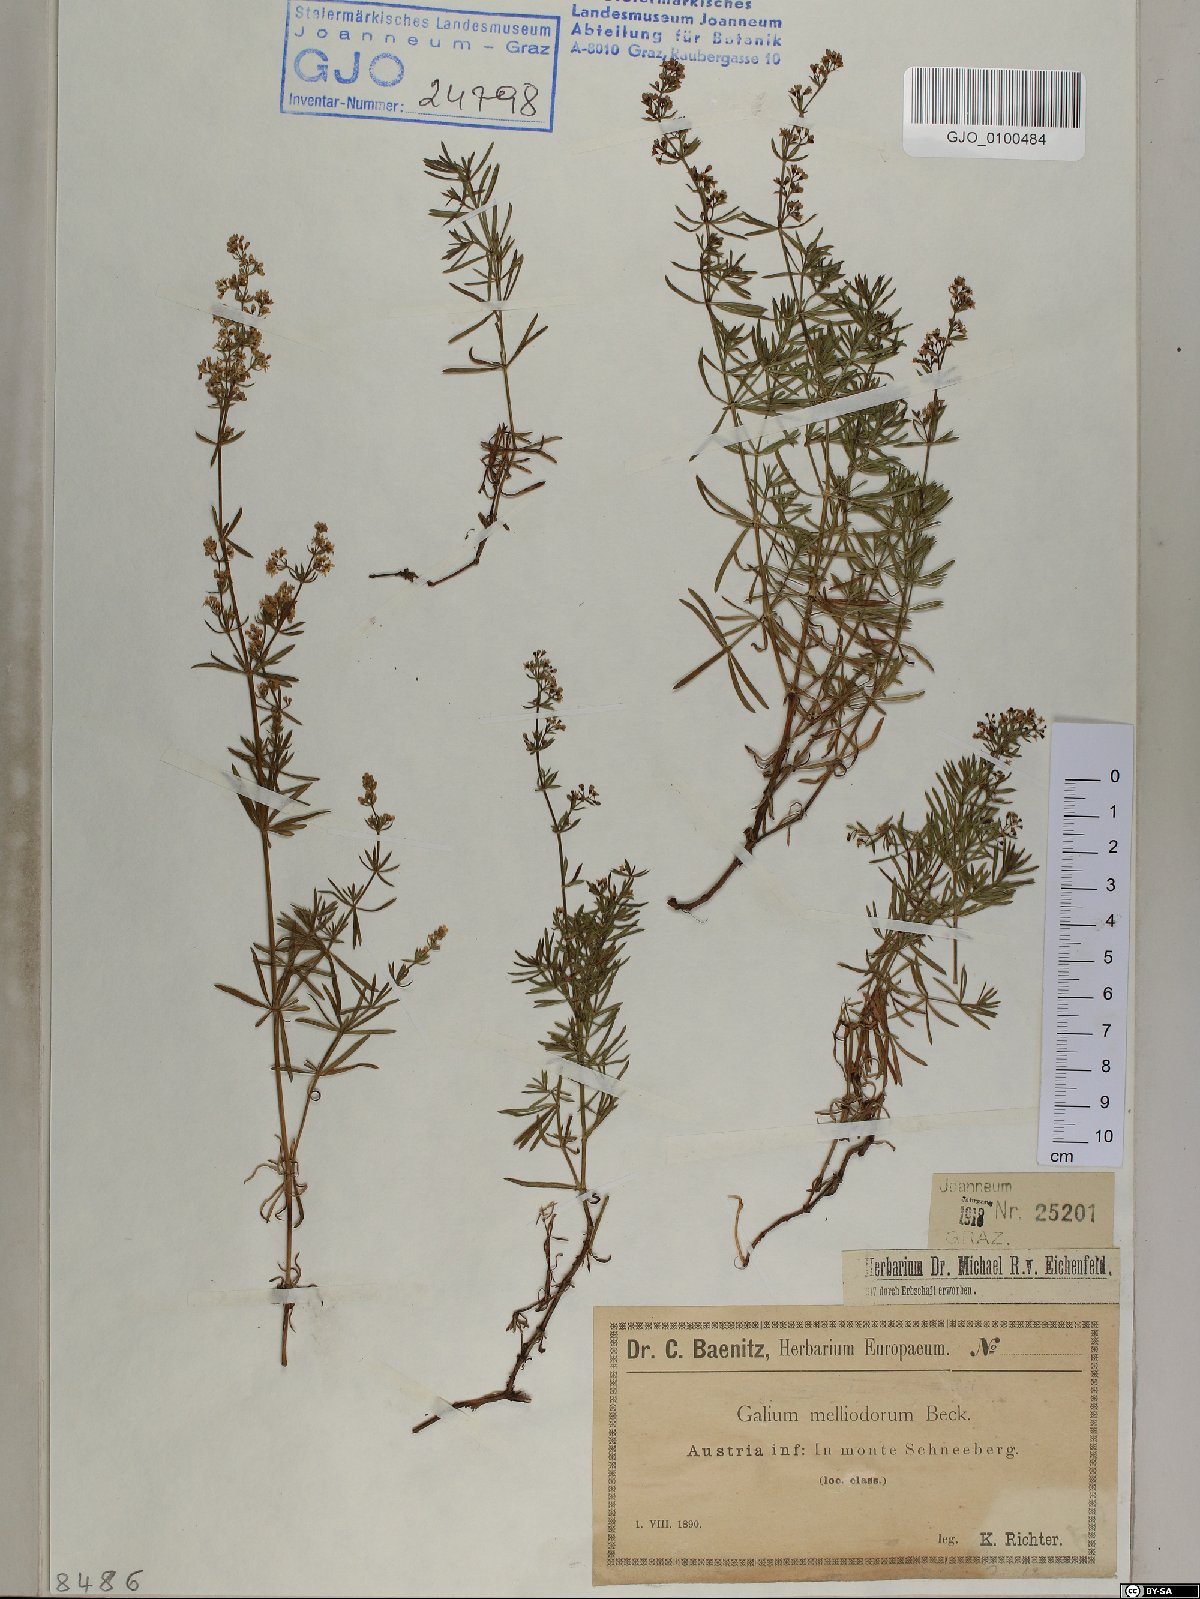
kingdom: Plantae
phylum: Tracheophyta
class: Magnoliopsida
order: Gentianales
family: Rubiaceae
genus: Galium
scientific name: Galium meliodorum
